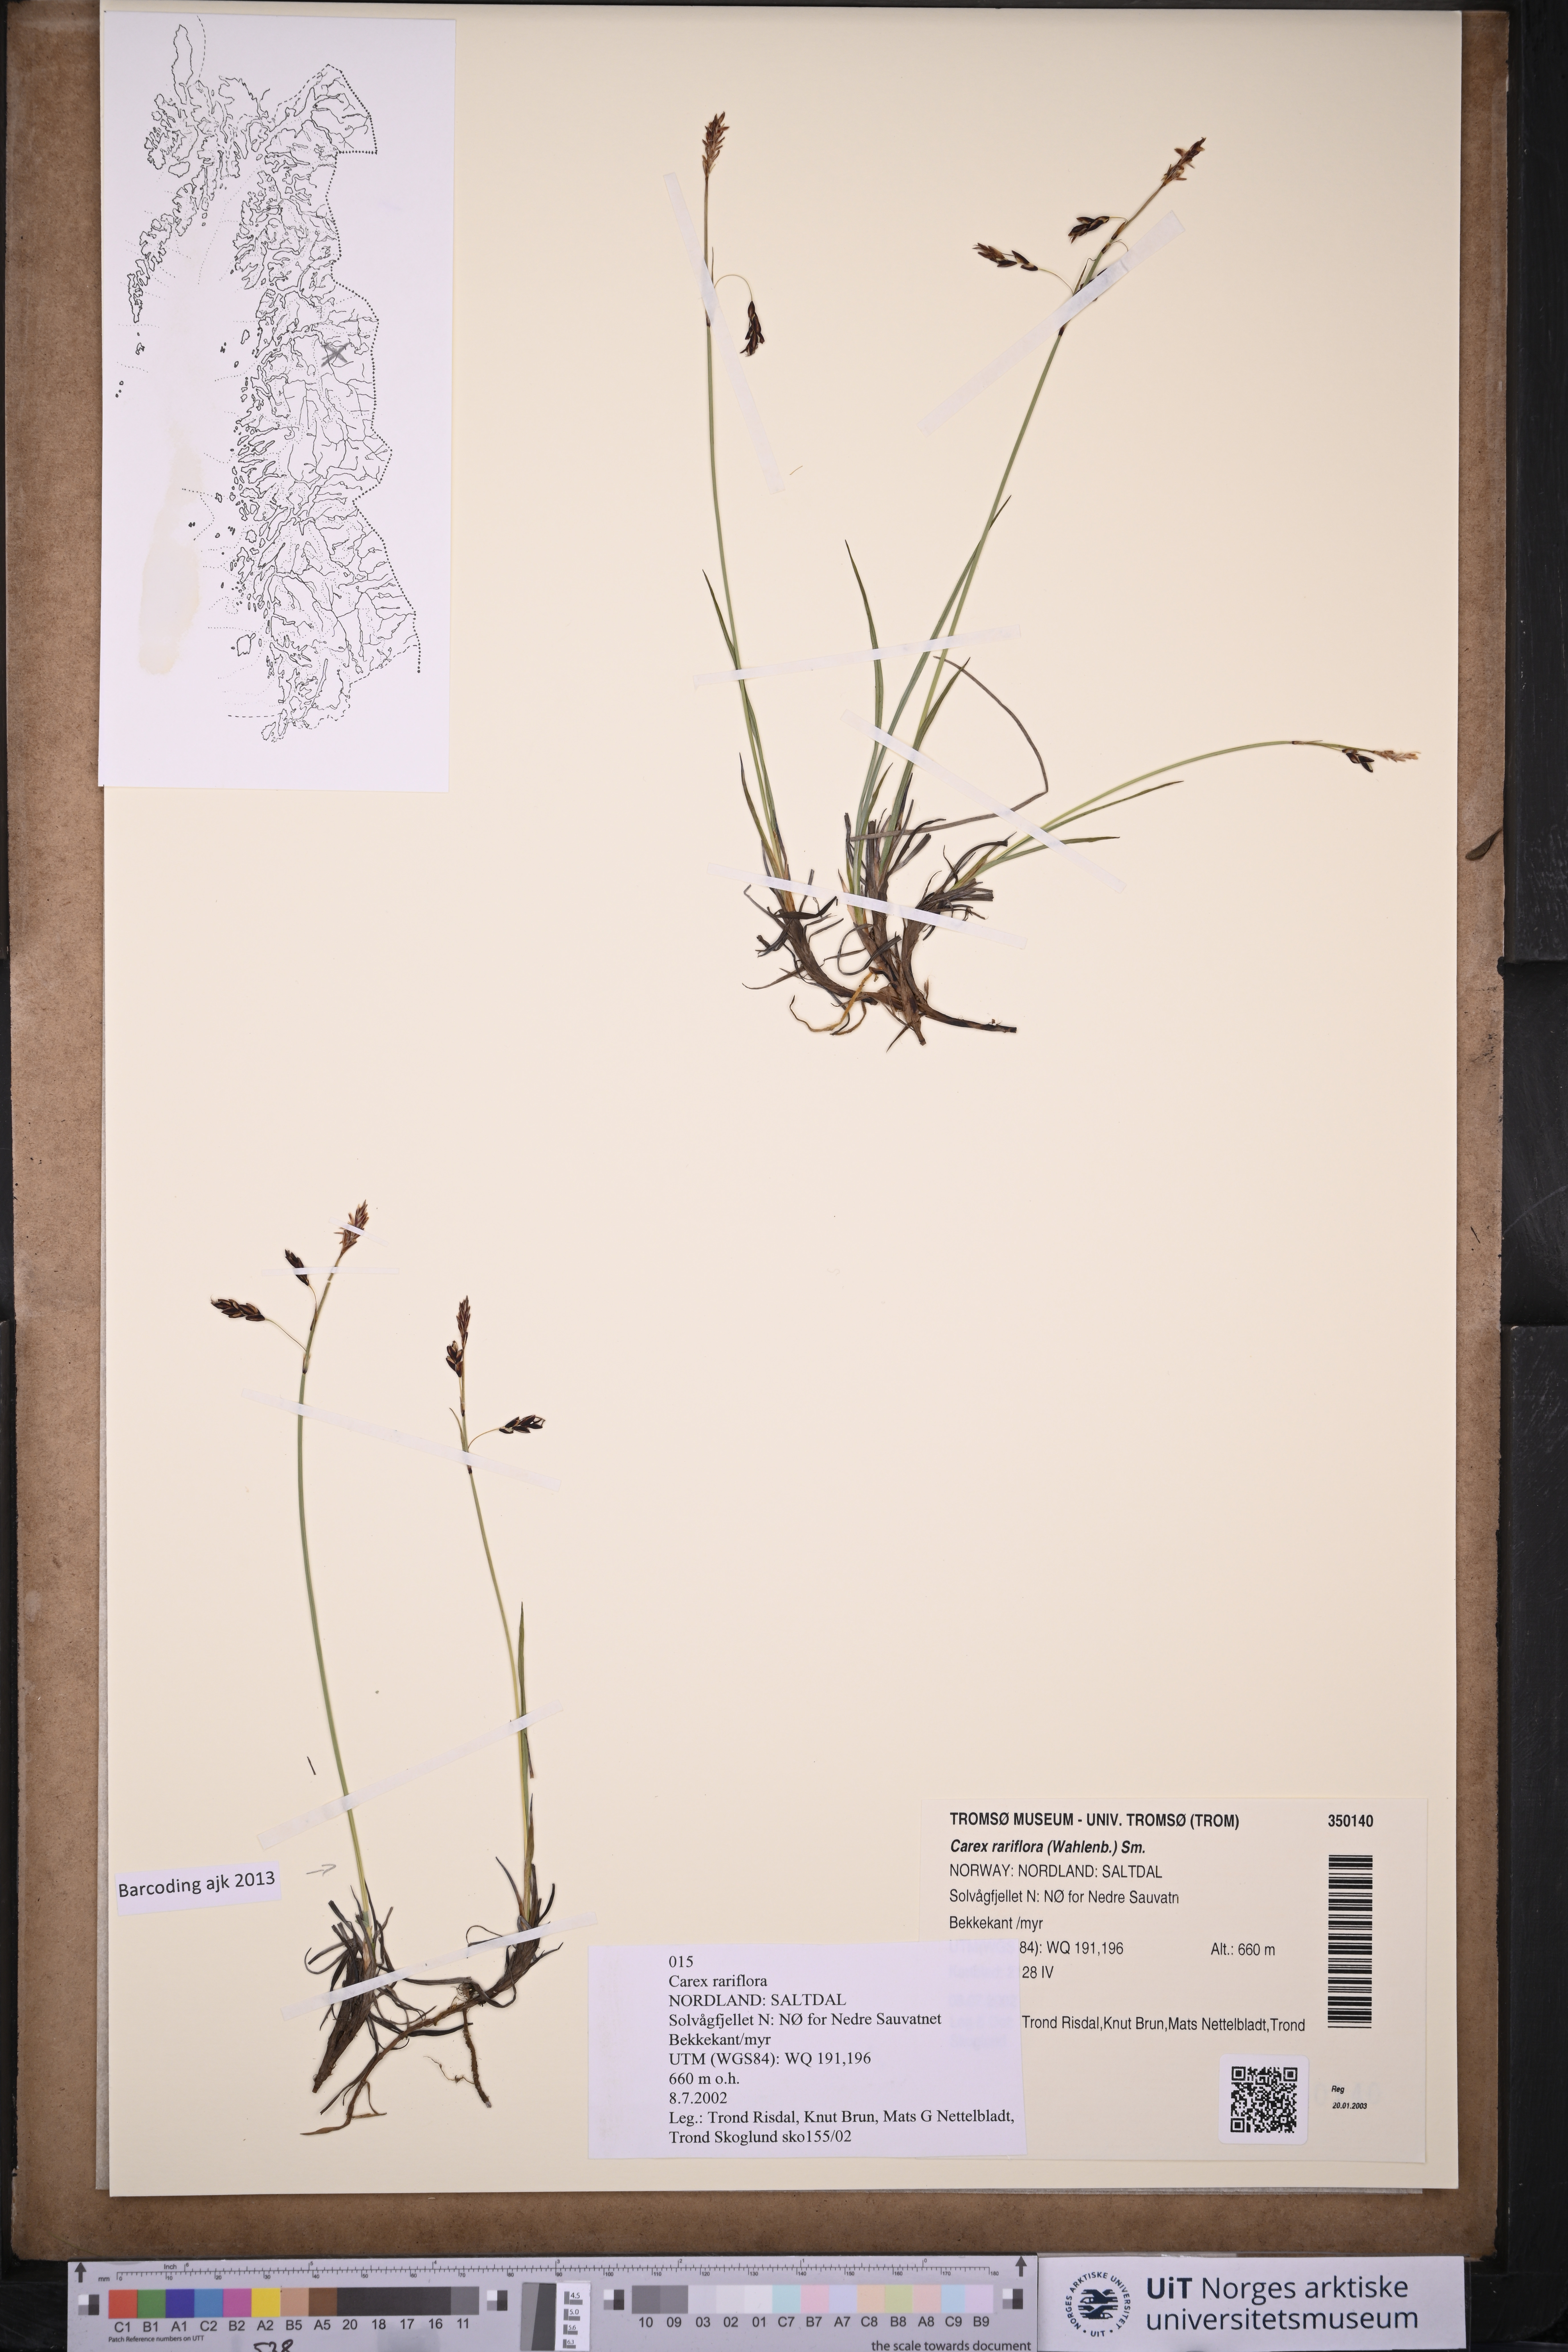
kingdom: Plantae
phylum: Tracheophyta
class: Liliopsida
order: Poales
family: Cyperaceae
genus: Carex
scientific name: Carex rariflora
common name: Loose-flowered alpine sedge
